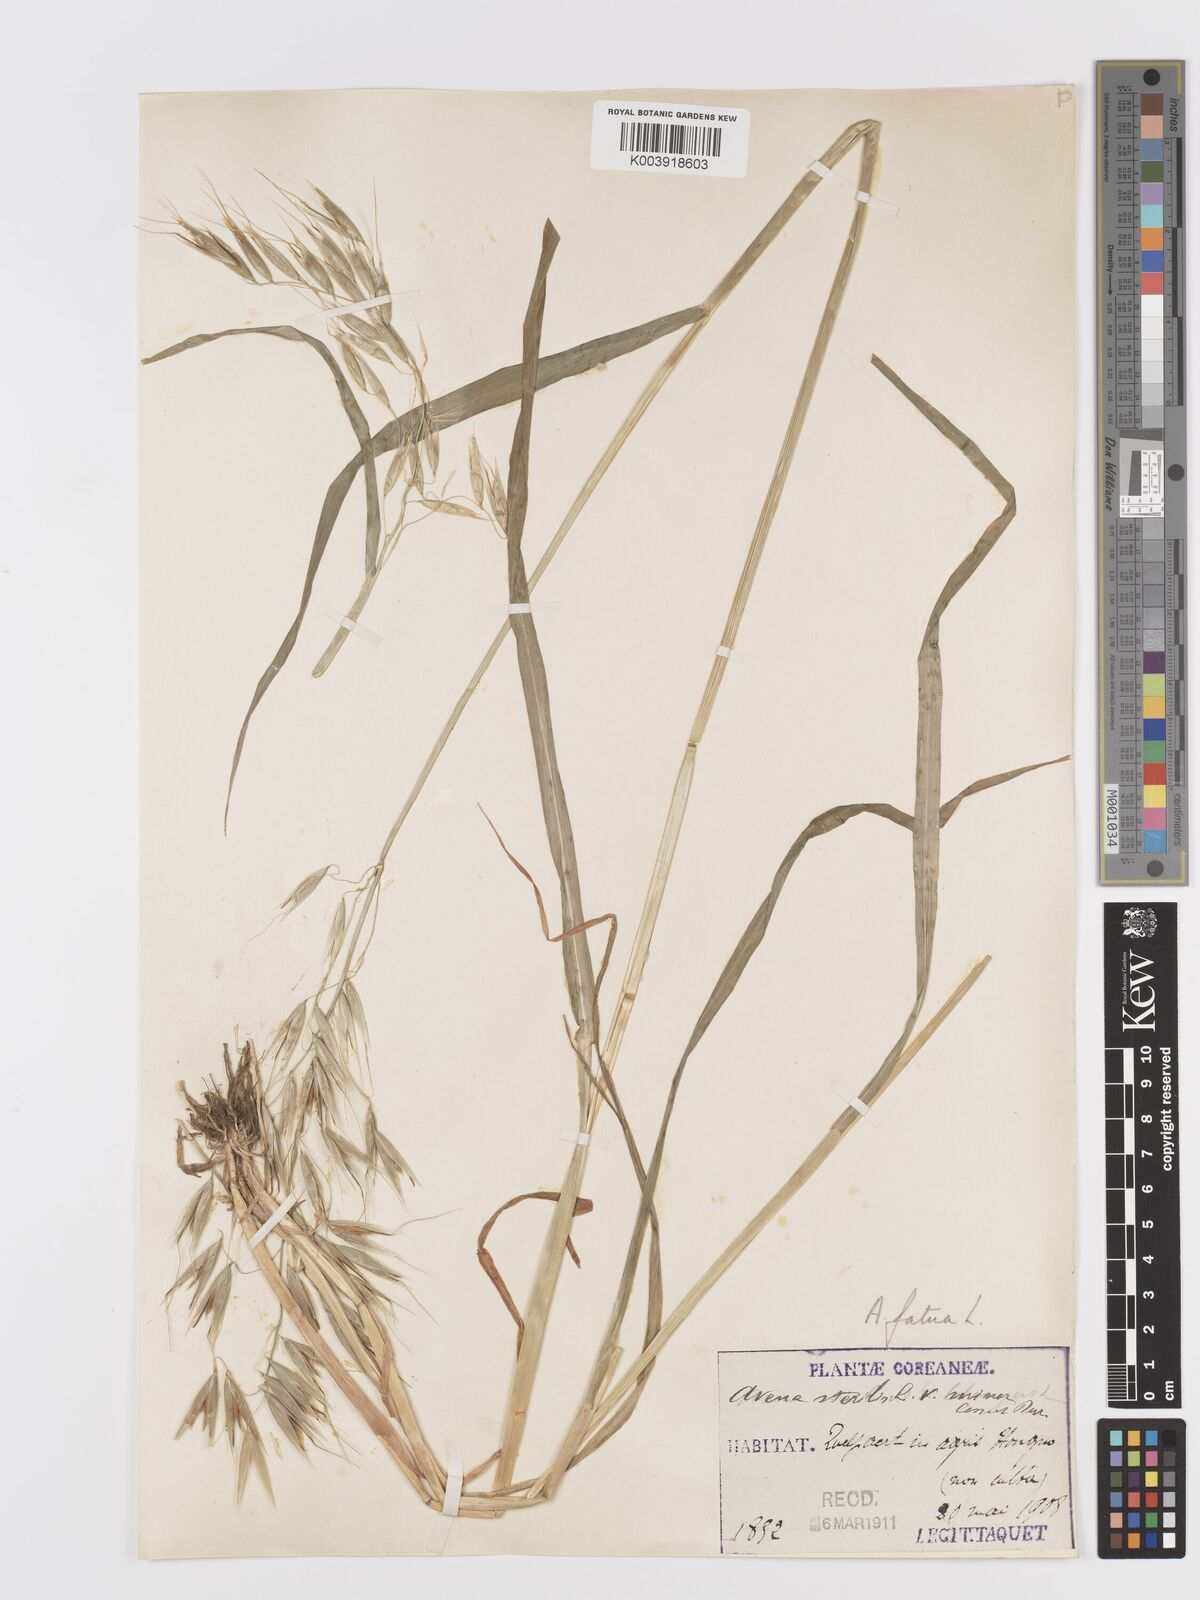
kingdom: Plantae
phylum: Tracheophyta
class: Liliopsida
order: Poales
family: Poaceae
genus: Avena
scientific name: Avena fatua
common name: Wild oat
